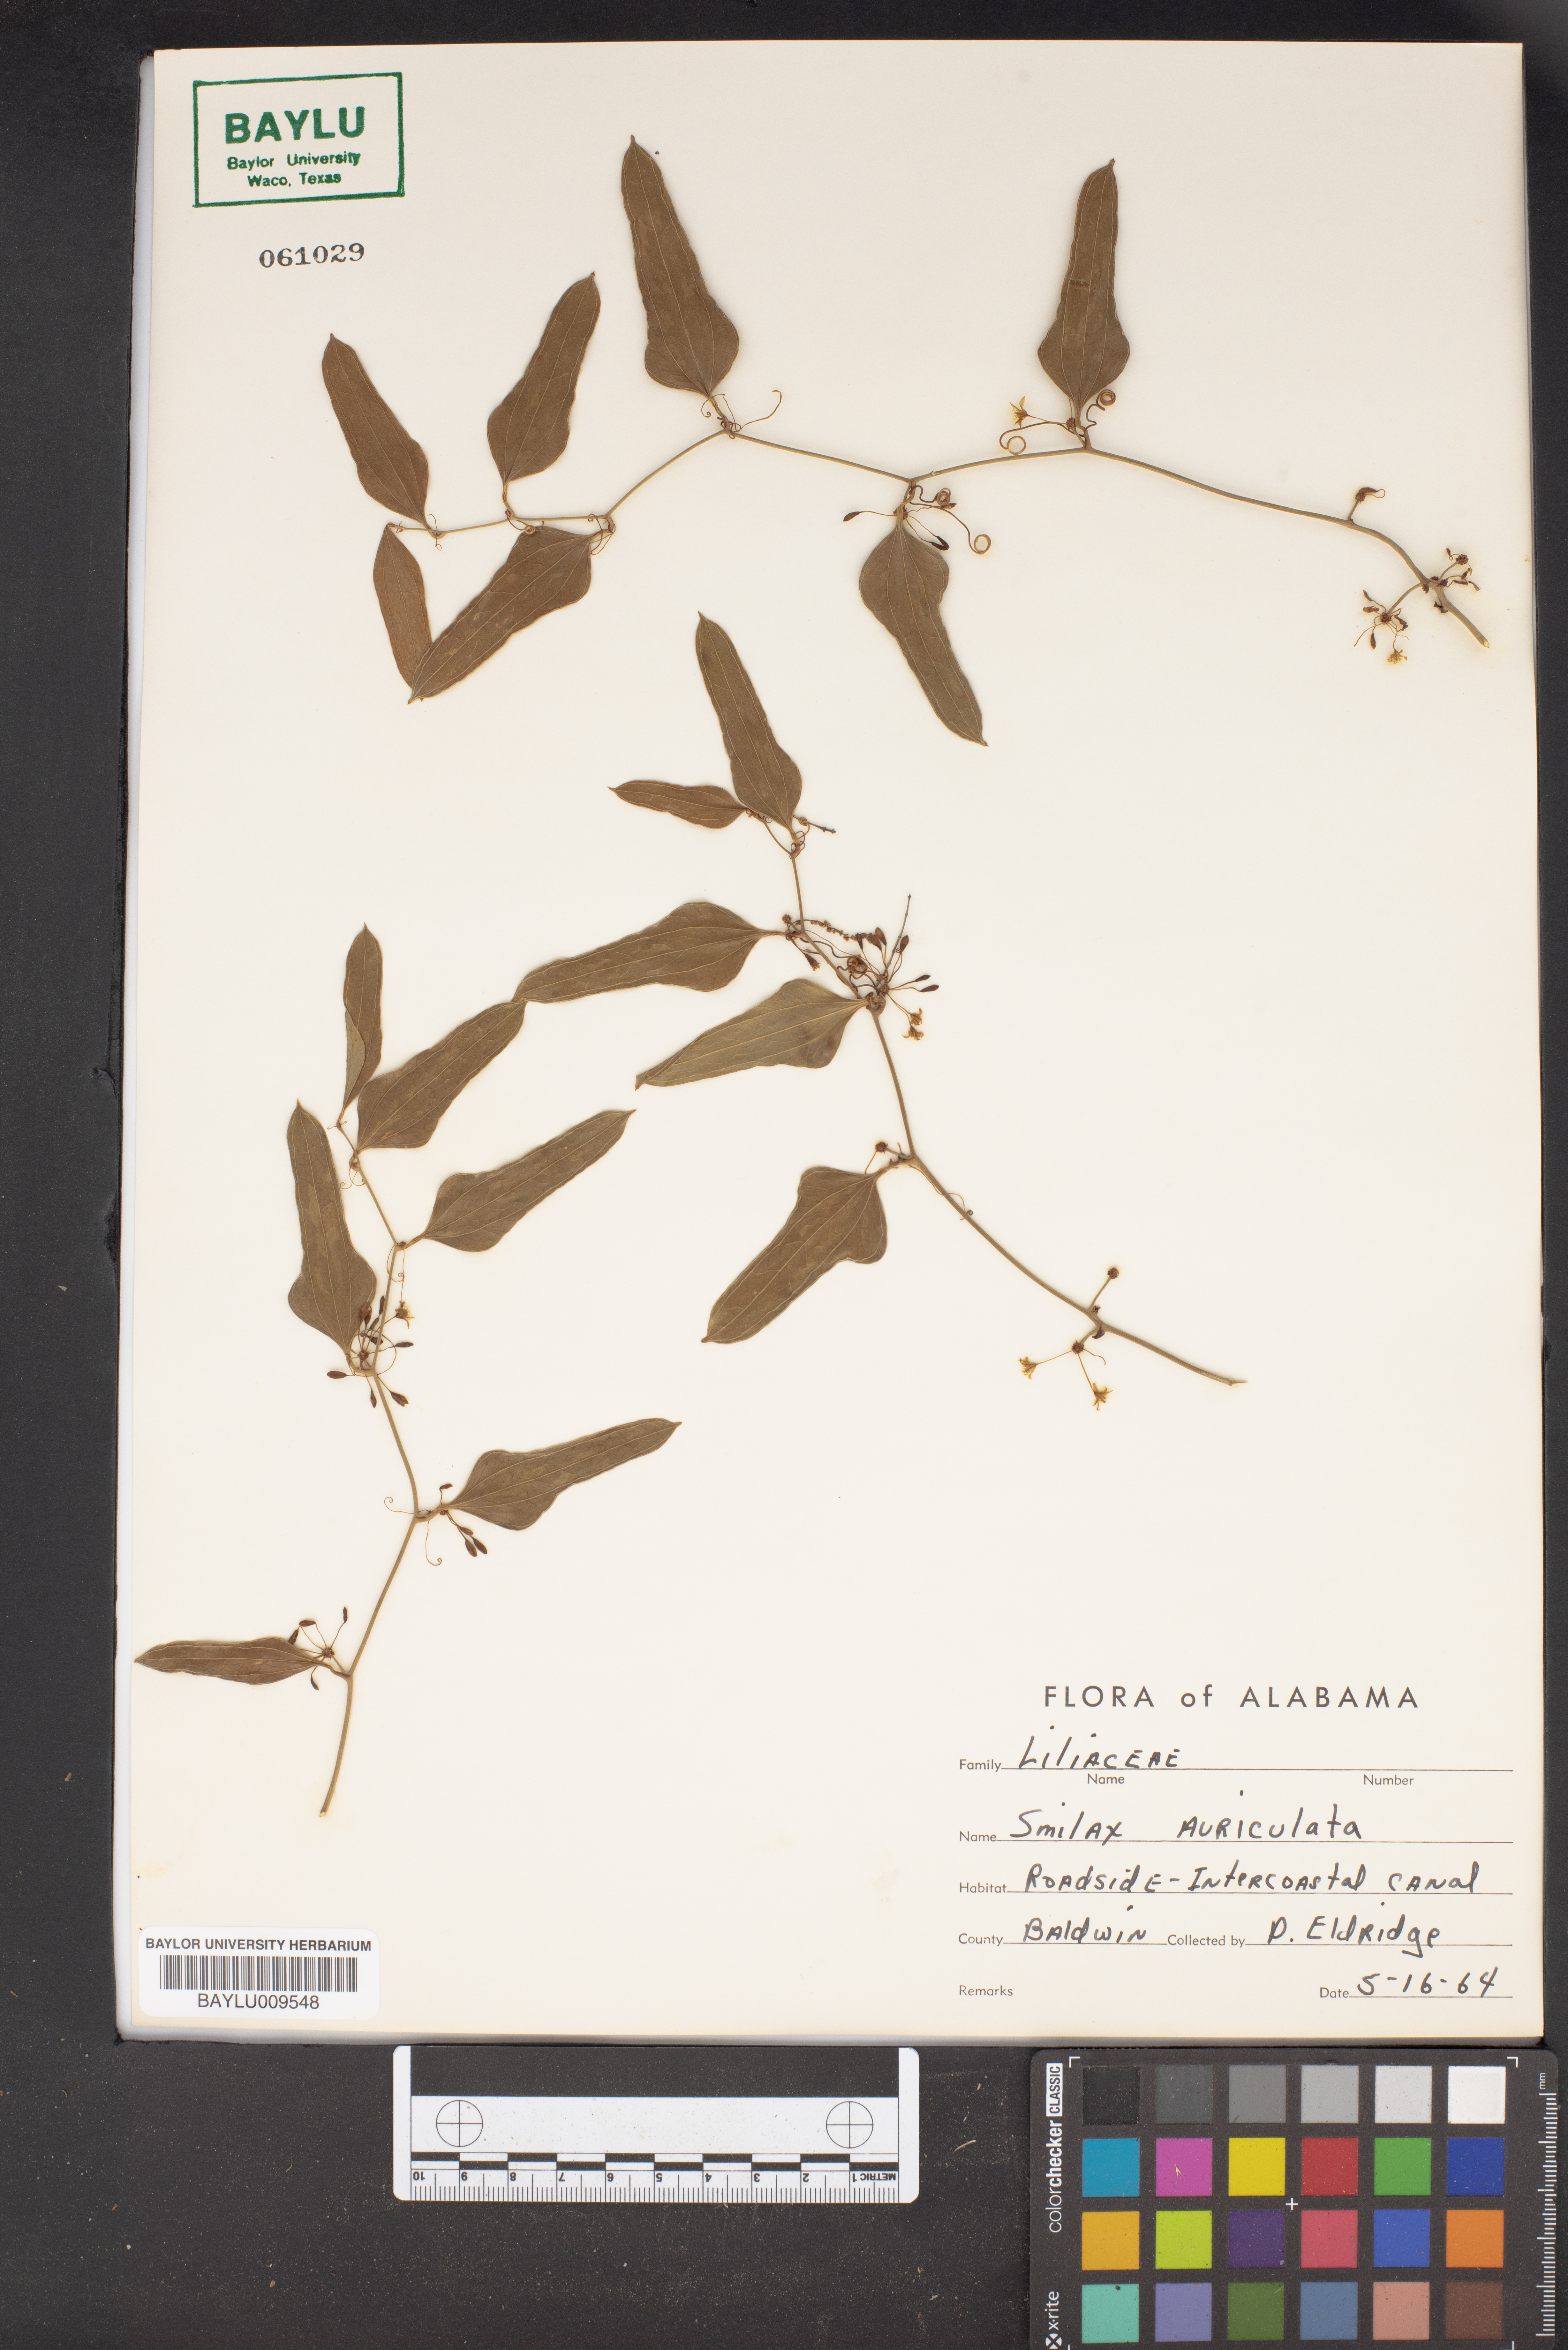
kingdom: Plantae
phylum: Tracheophyta
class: Liliopsida
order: Liliales
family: Smilacaceae
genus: Smilax
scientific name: Smilax auriculata
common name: Wild bamboo
